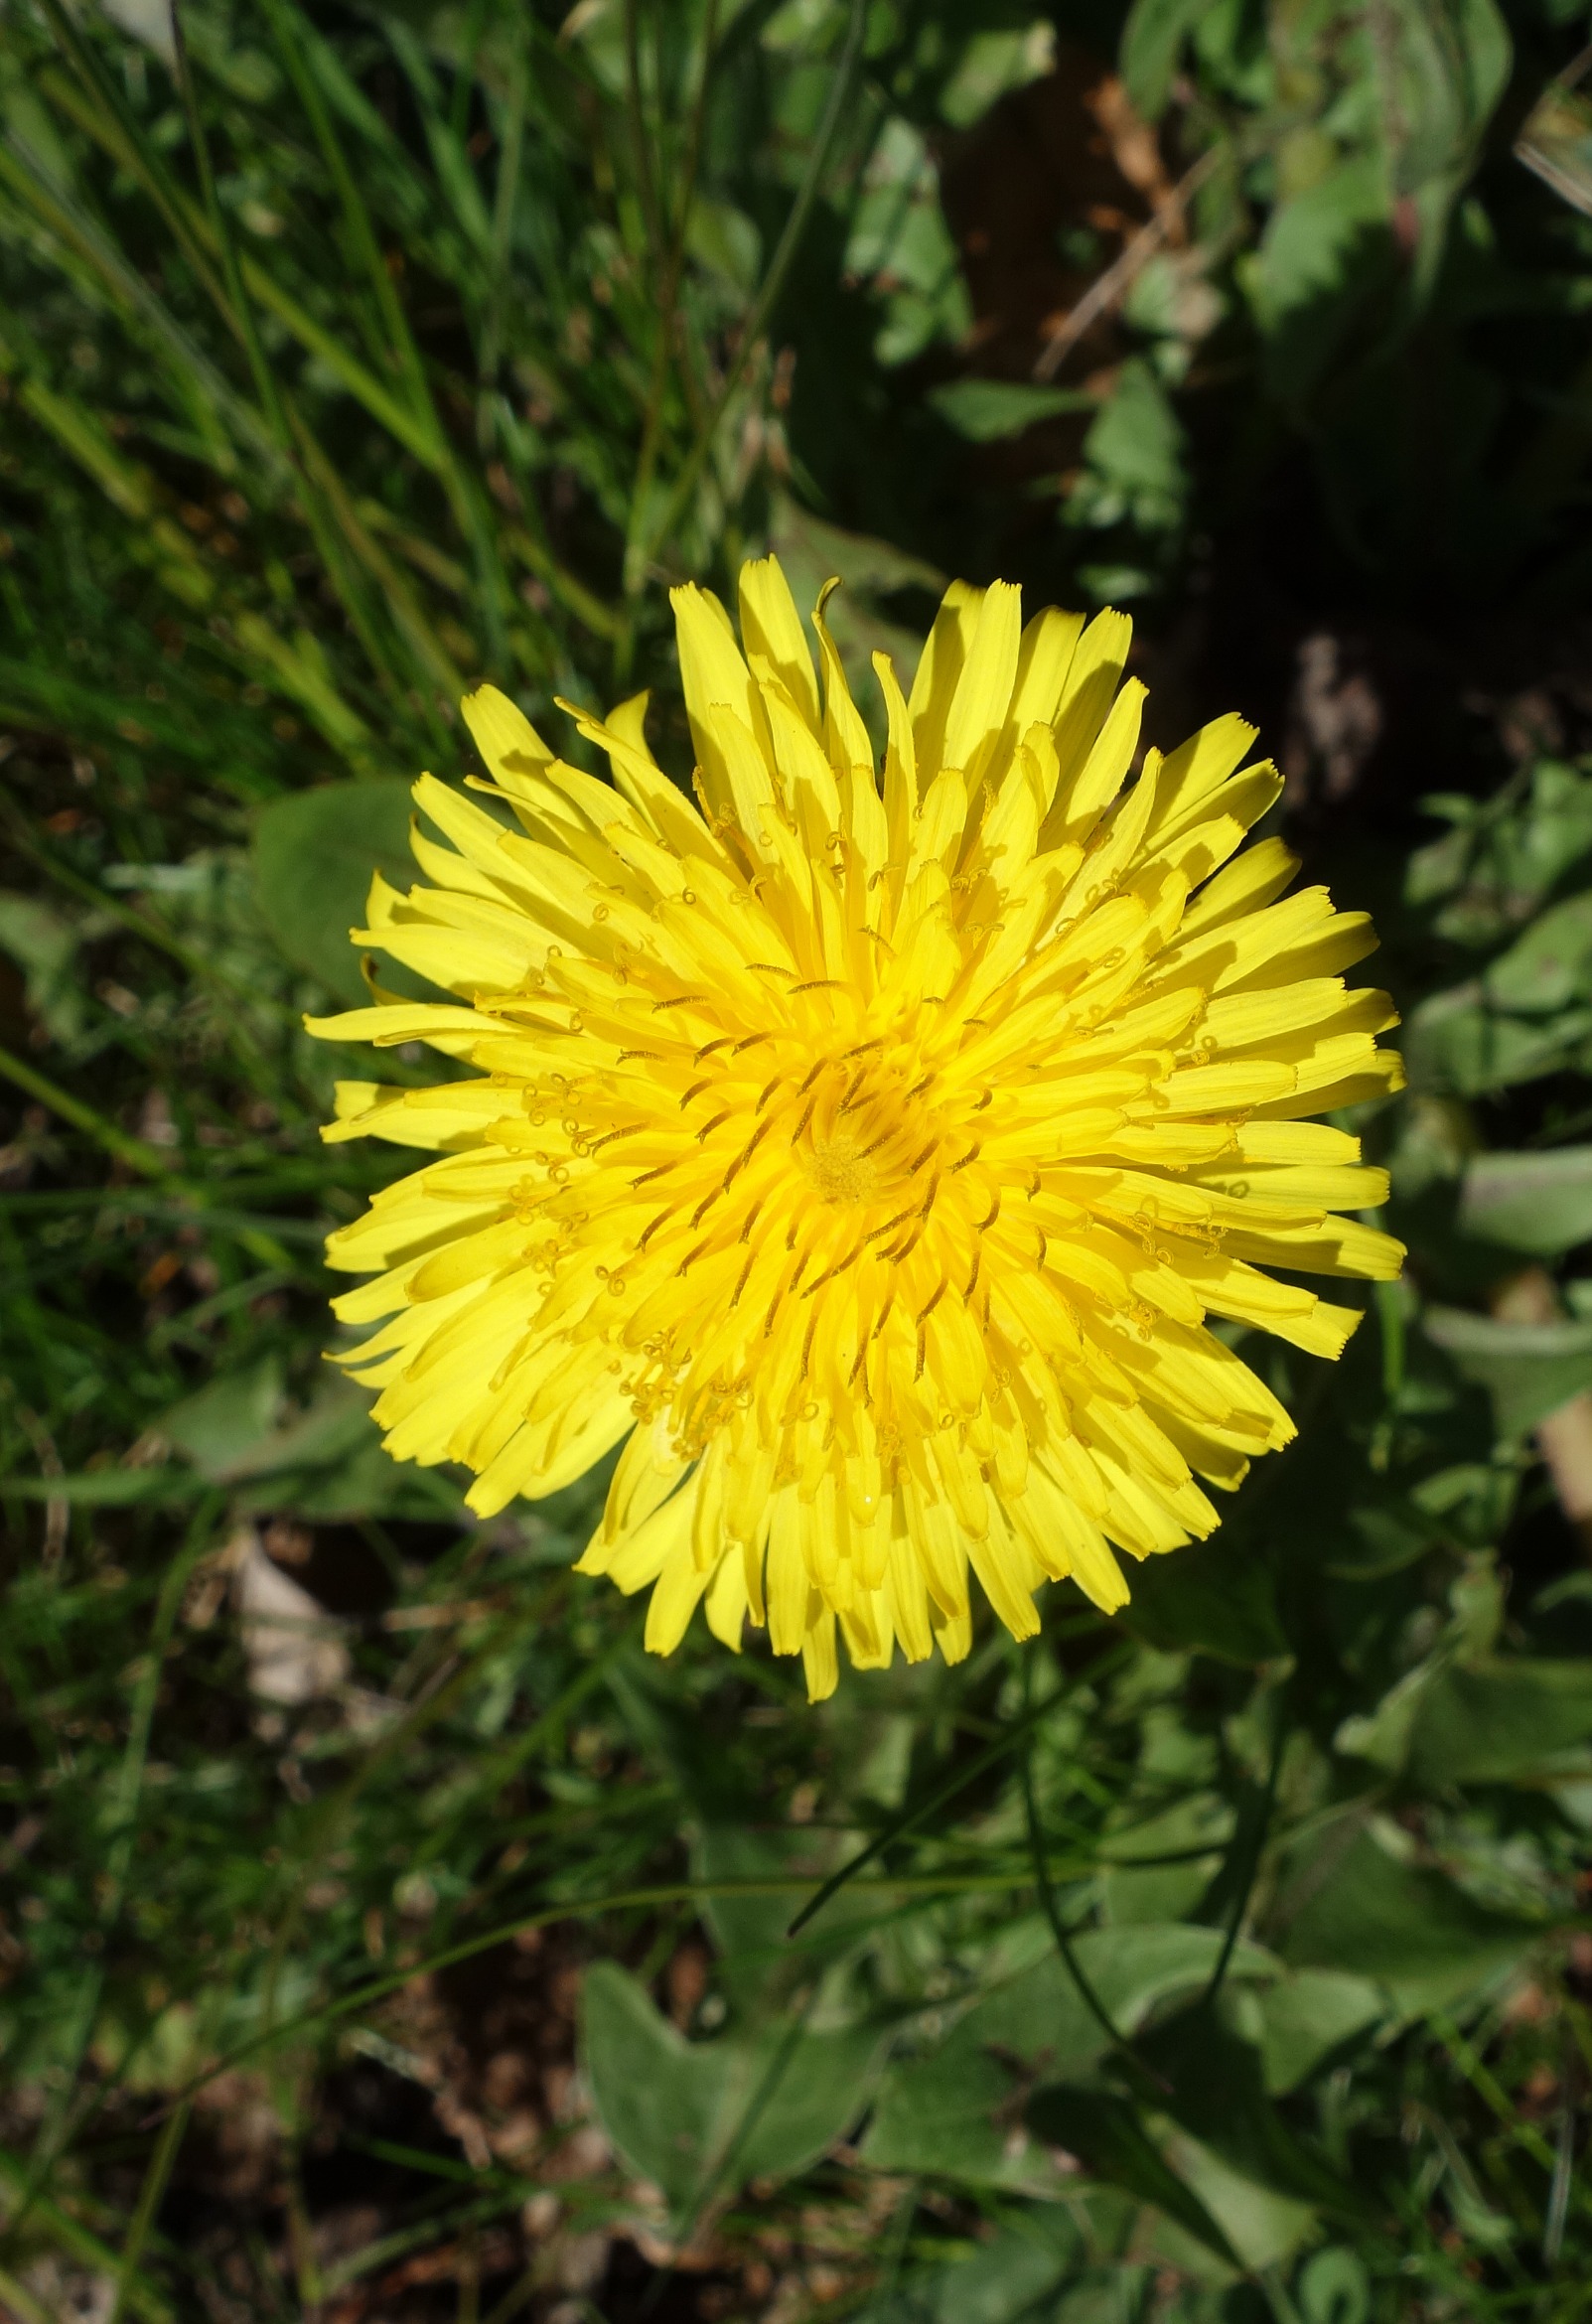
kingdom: Plantae
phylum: Tracheophyta
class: Magnoliopsida
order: Asterales
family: Asteraceae
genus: Taraxacum
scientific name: Taraxacum
